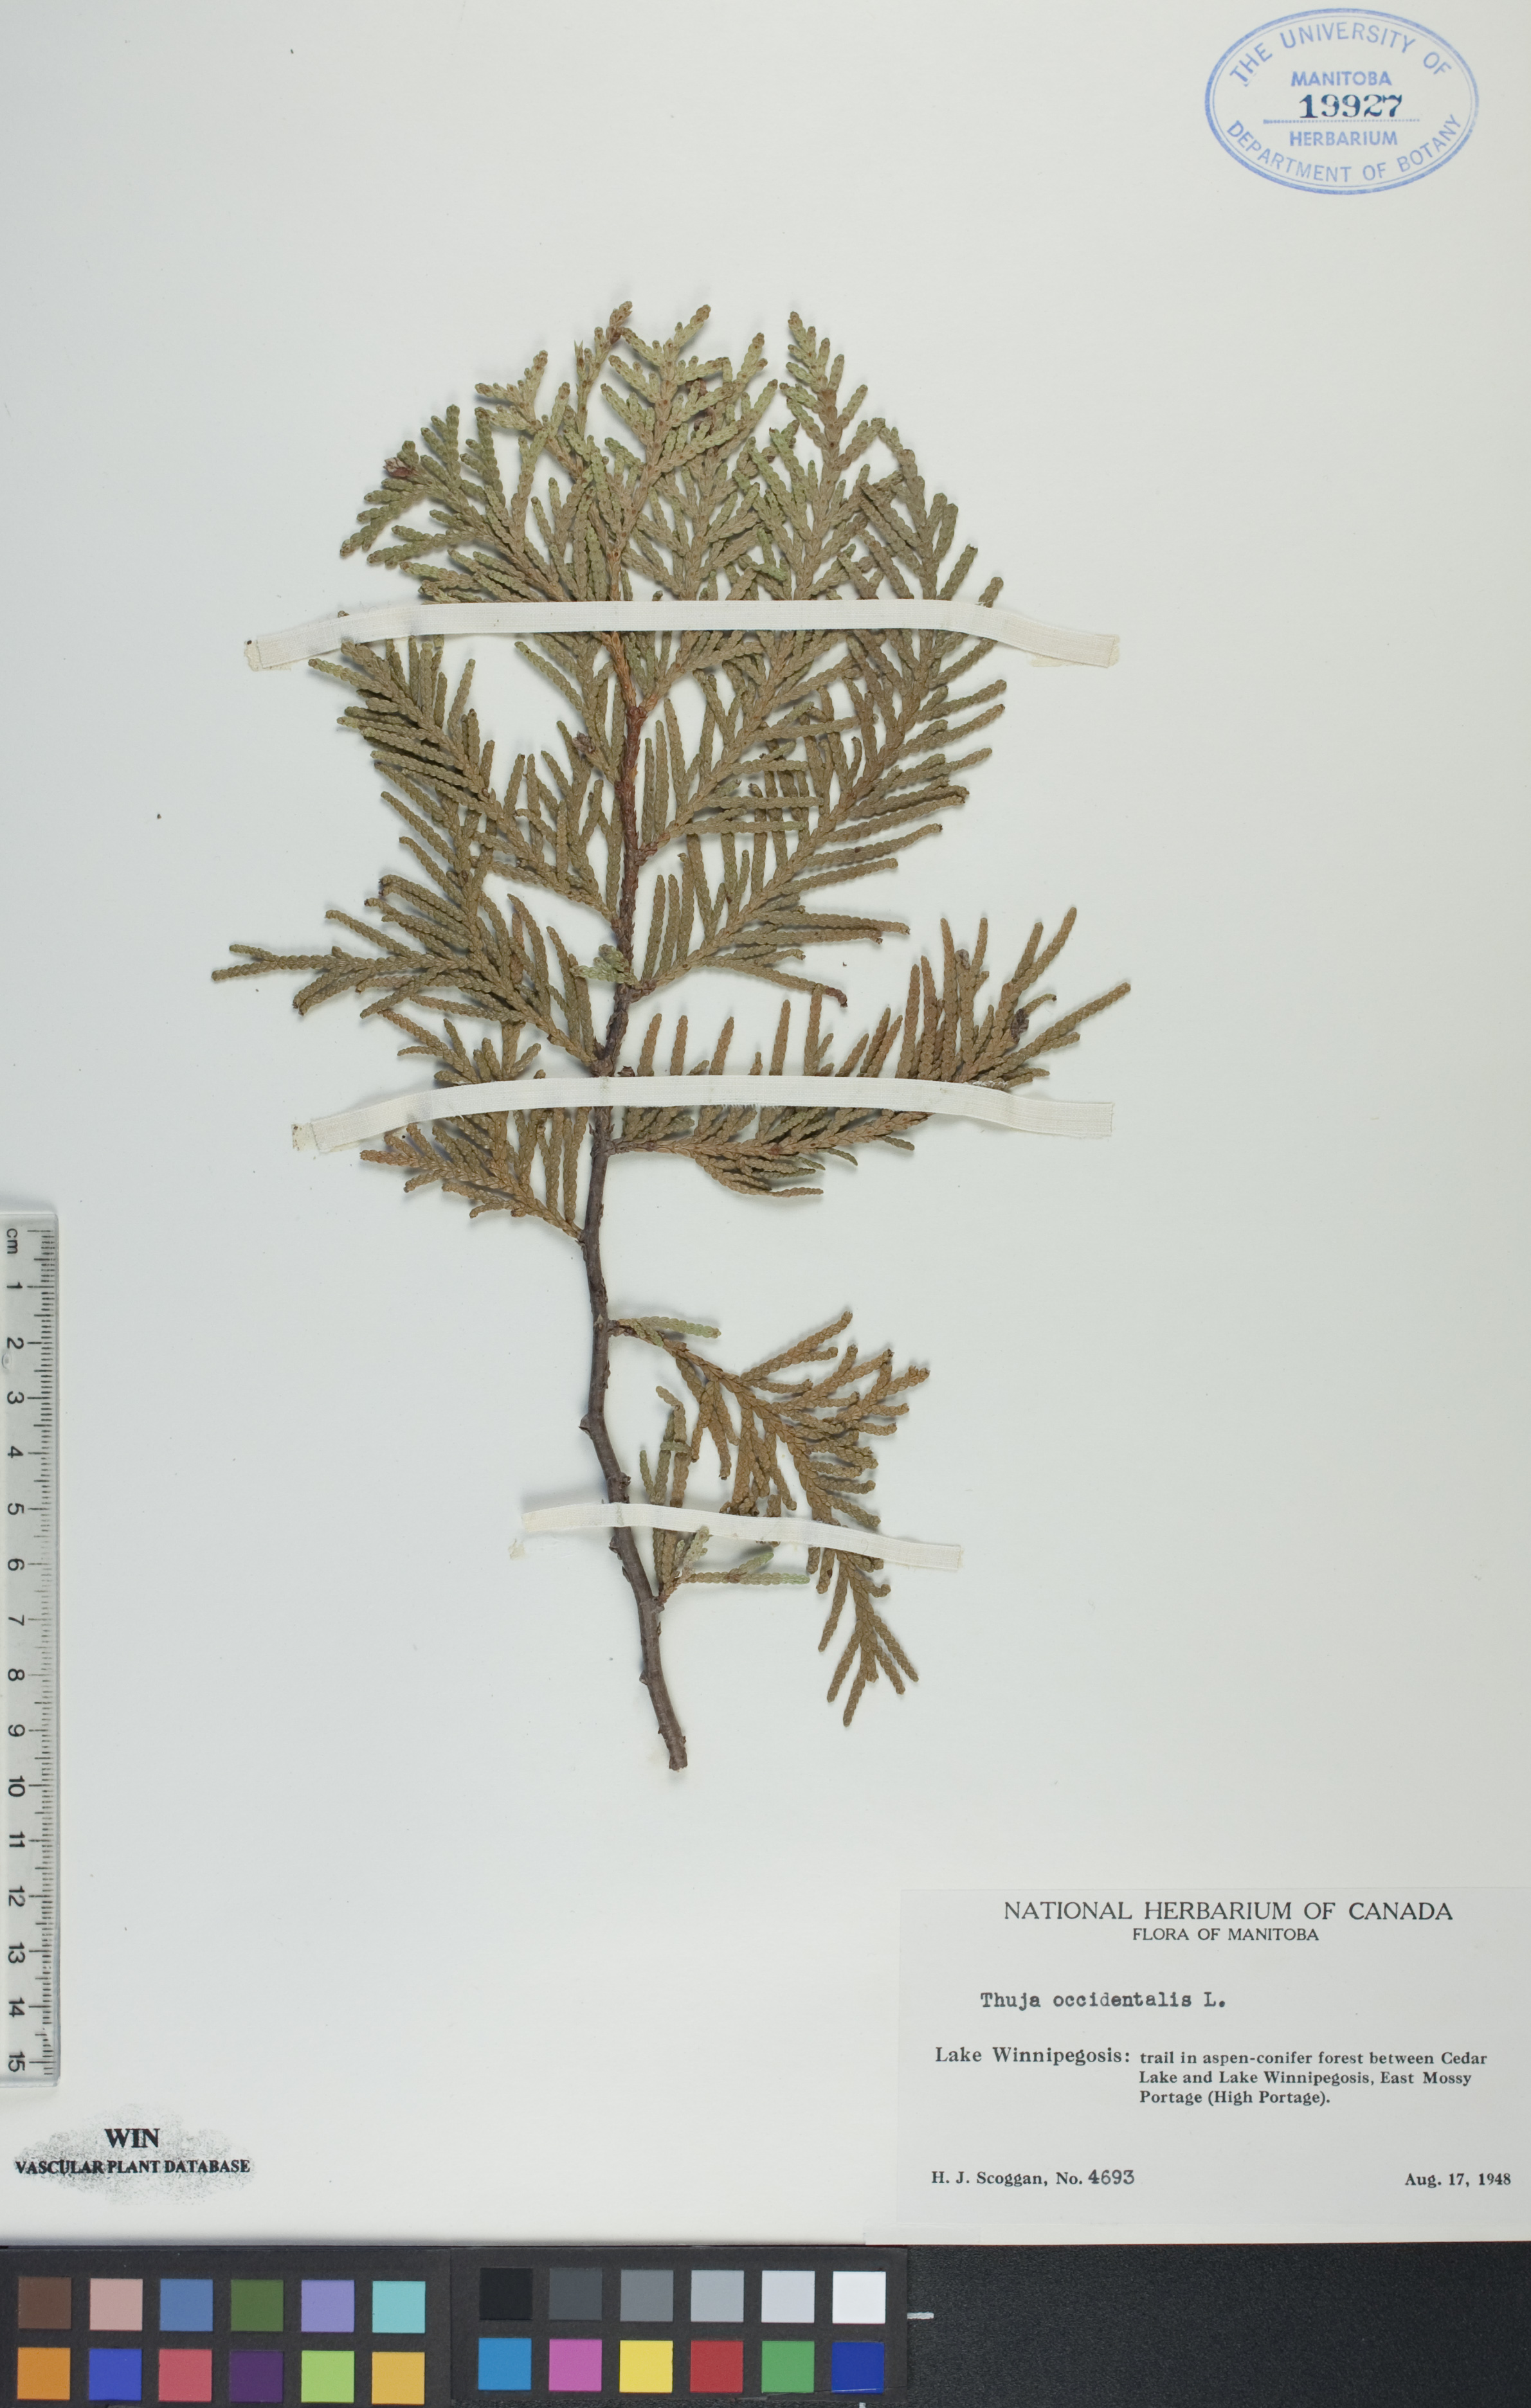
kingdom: Plantae
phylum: Tracheophyta
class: Pinopsida
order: Pinales
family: Cupressaceae
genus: Thuja
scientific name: Thuja occidentalis
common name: Northern white-cedar
